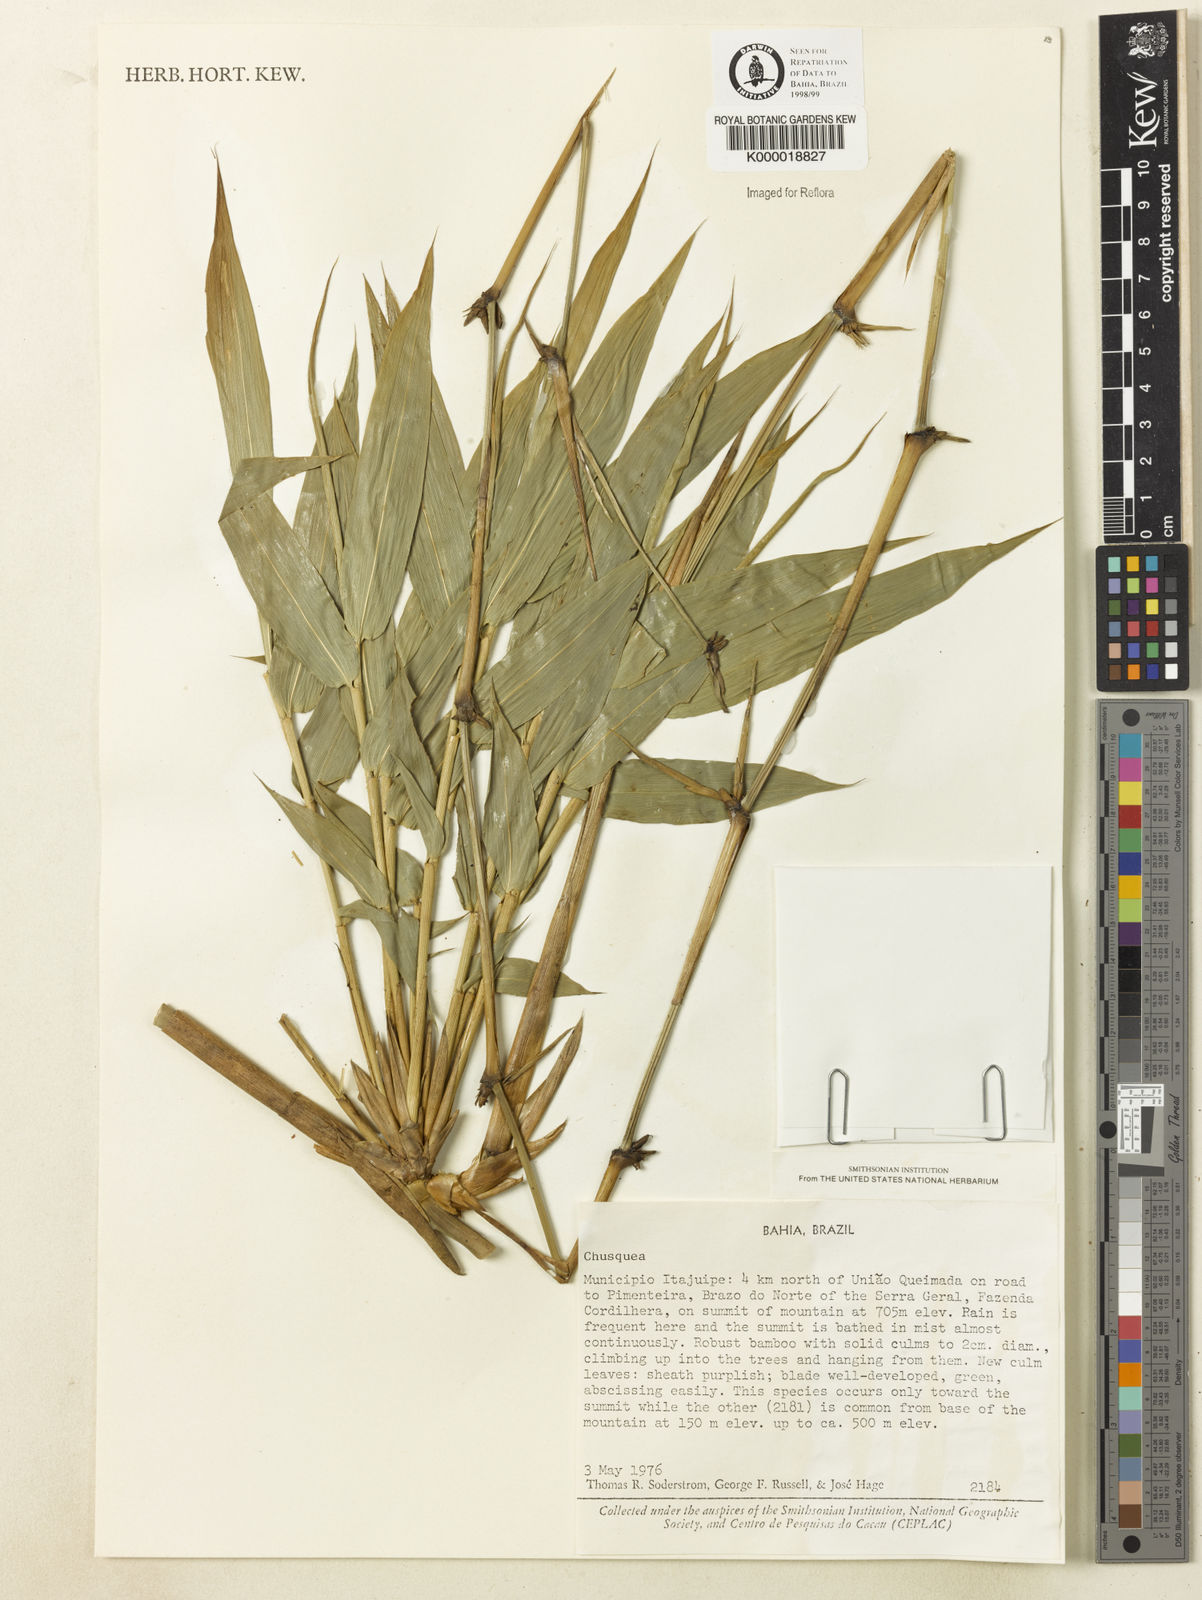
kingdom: Plantae
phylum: Tracheophyta
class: Liliopsida
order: Poales
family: Poaceae
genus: Chusquea
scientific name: Chusquea
